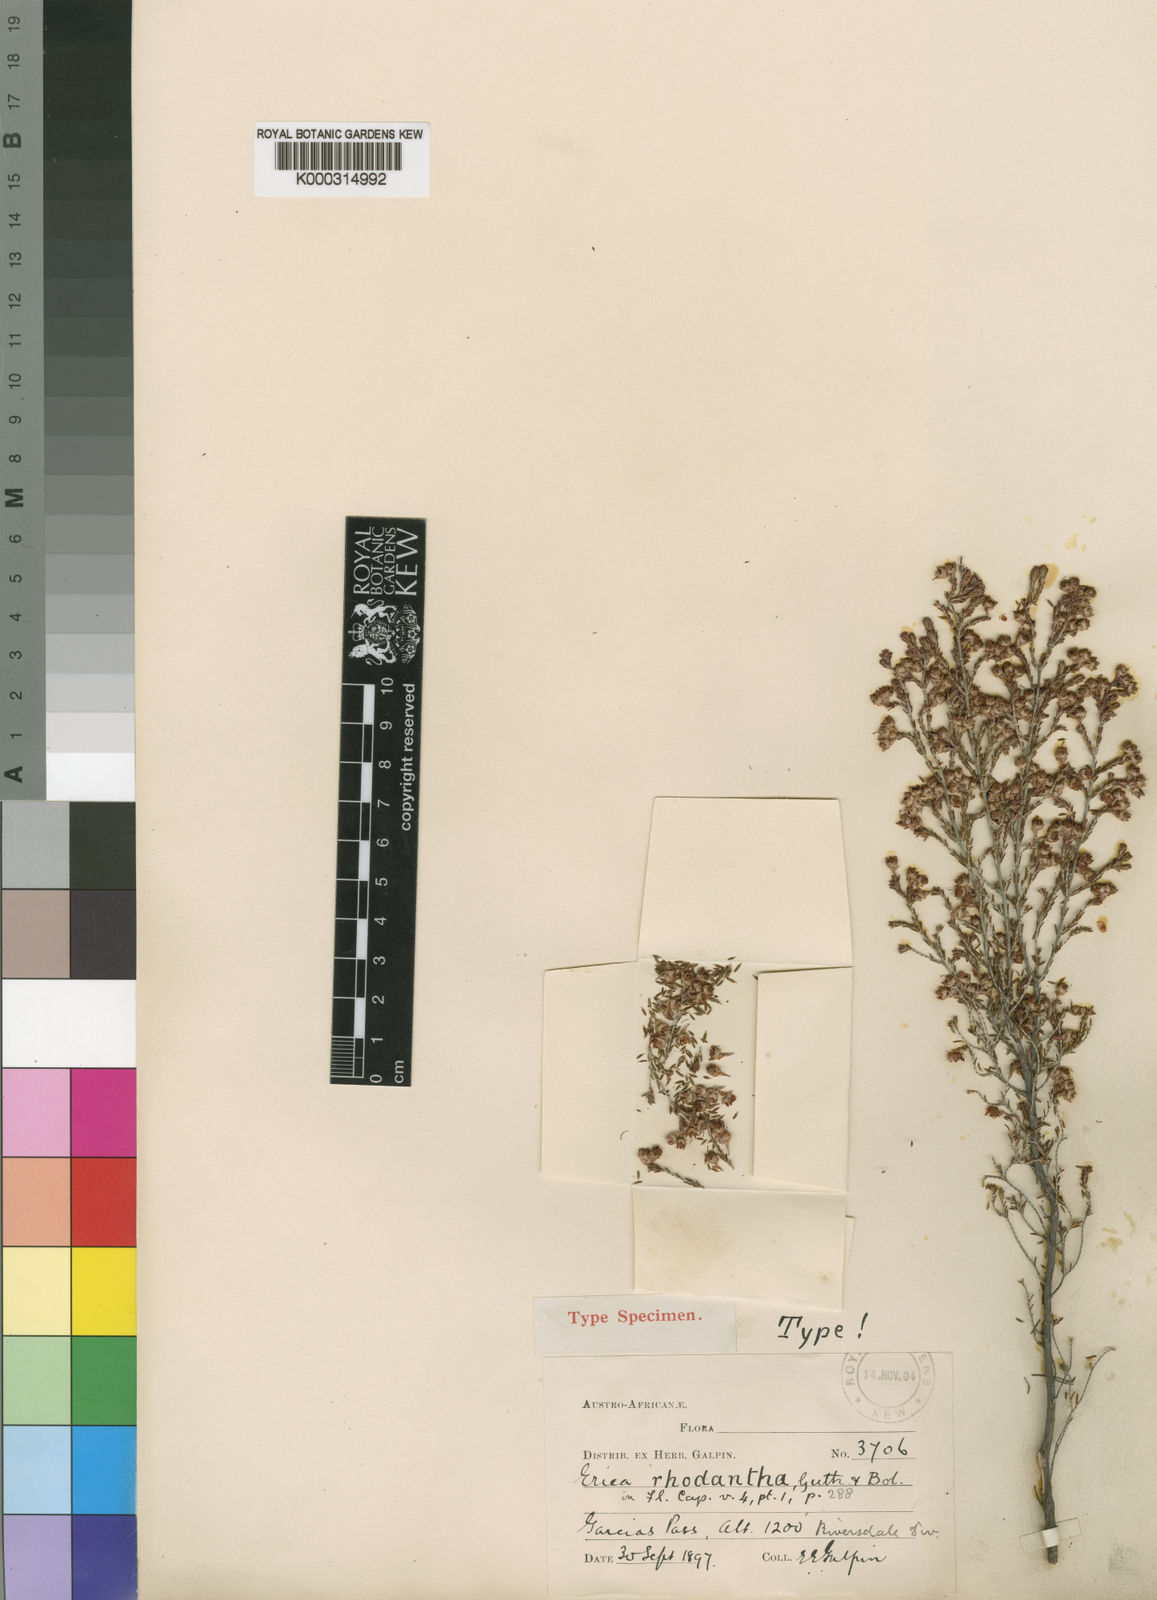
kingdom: Plantae
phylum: Tracheophyta
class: Magnoliopsida
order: Ericales
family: Ericaceae
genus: Erica
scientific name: Erica rhodantha
